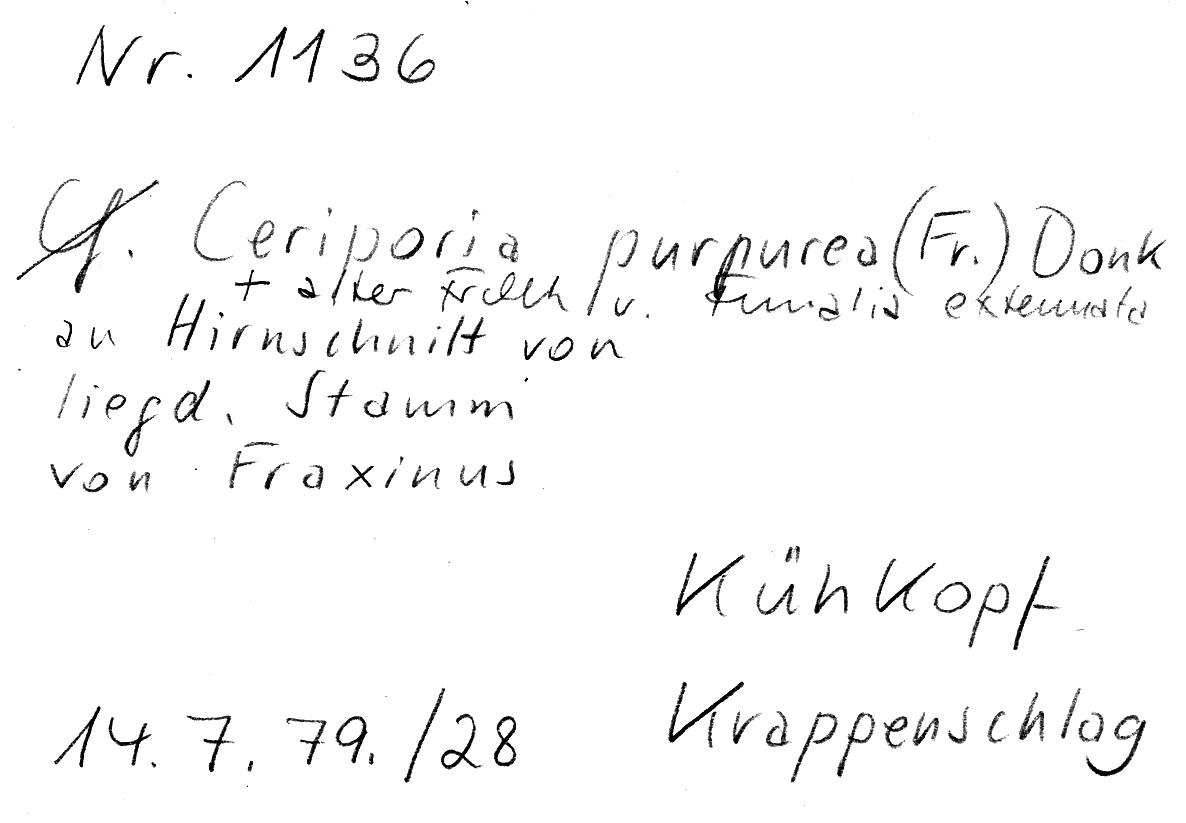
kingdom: Plantae
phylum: Tracheophyta
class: Magnoliopsida
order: Lamiales
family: Oleaceae
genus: Fraxinus
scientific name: Fraxinus
